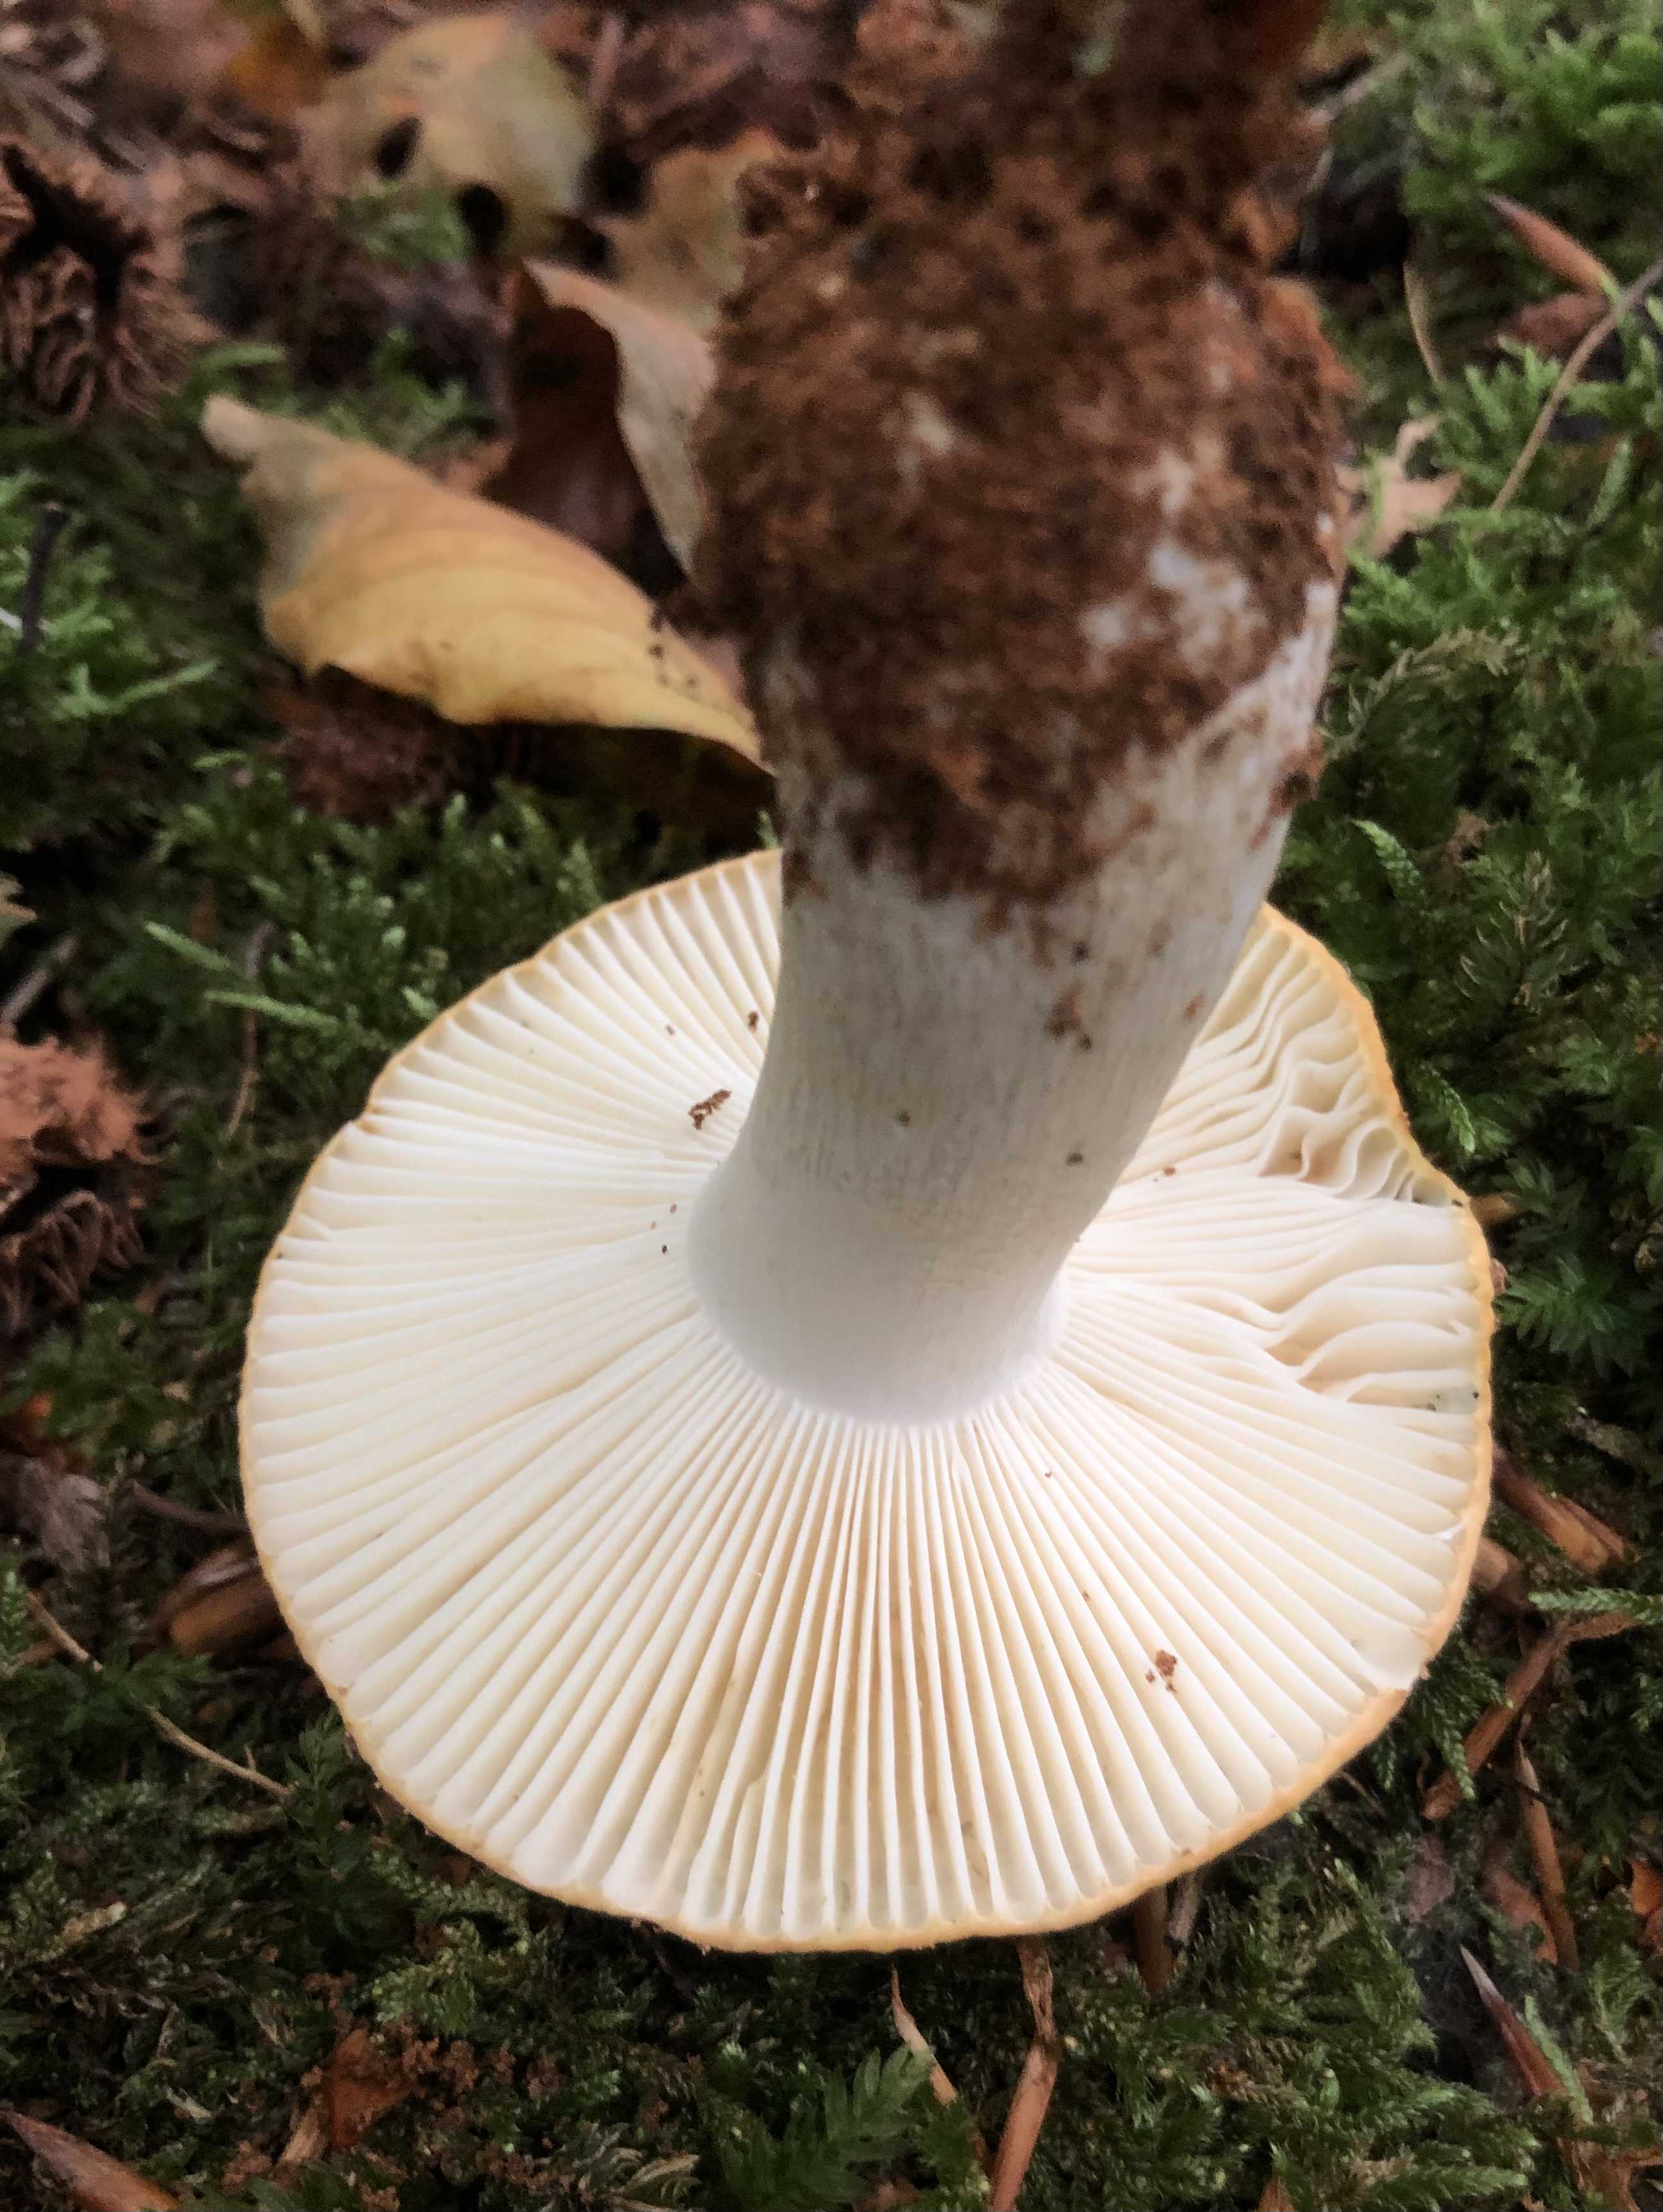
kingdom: Fungi
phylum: Basidiomycota
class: Agaricomycetes
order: Russulales
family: Russulaceae
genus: Russula
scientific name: Russula ochroleuca
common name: okkergul skørhat
